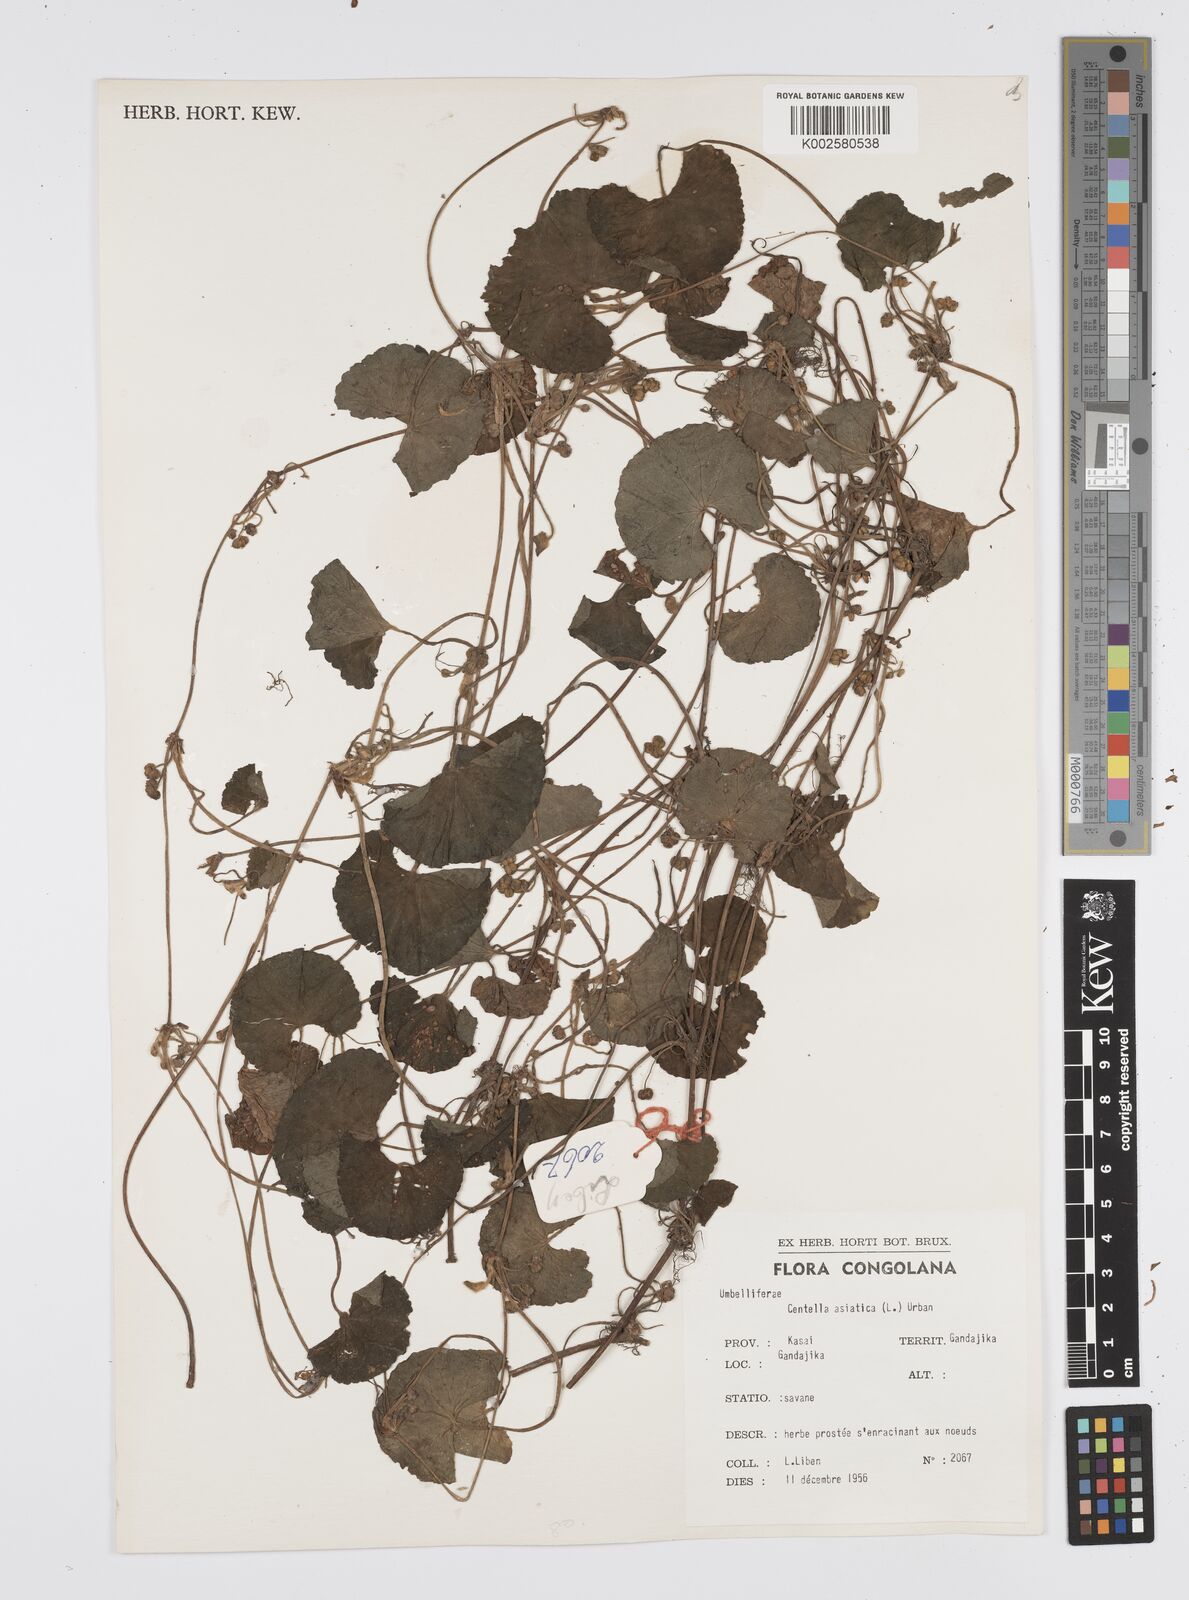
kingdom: Plantae
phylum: Tracheophyta
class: Magnoliopsida
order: Apiales
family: Apiaceae
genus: Centella
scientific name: Centella asiatica
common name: Spadeleaf
